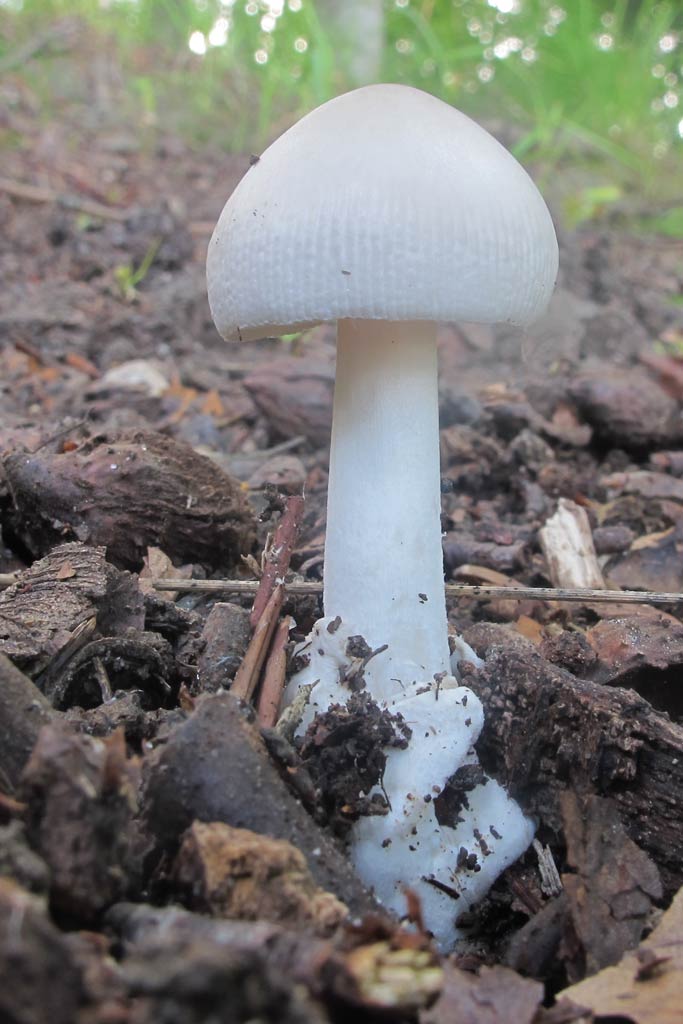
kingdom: Fungi
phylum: Basidiomycota
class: Agaricomycetes
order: Agaricales
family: Amanitaceae
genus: Amanita
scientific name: Amanita vaginata
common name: hvid kam-fluesvamp
